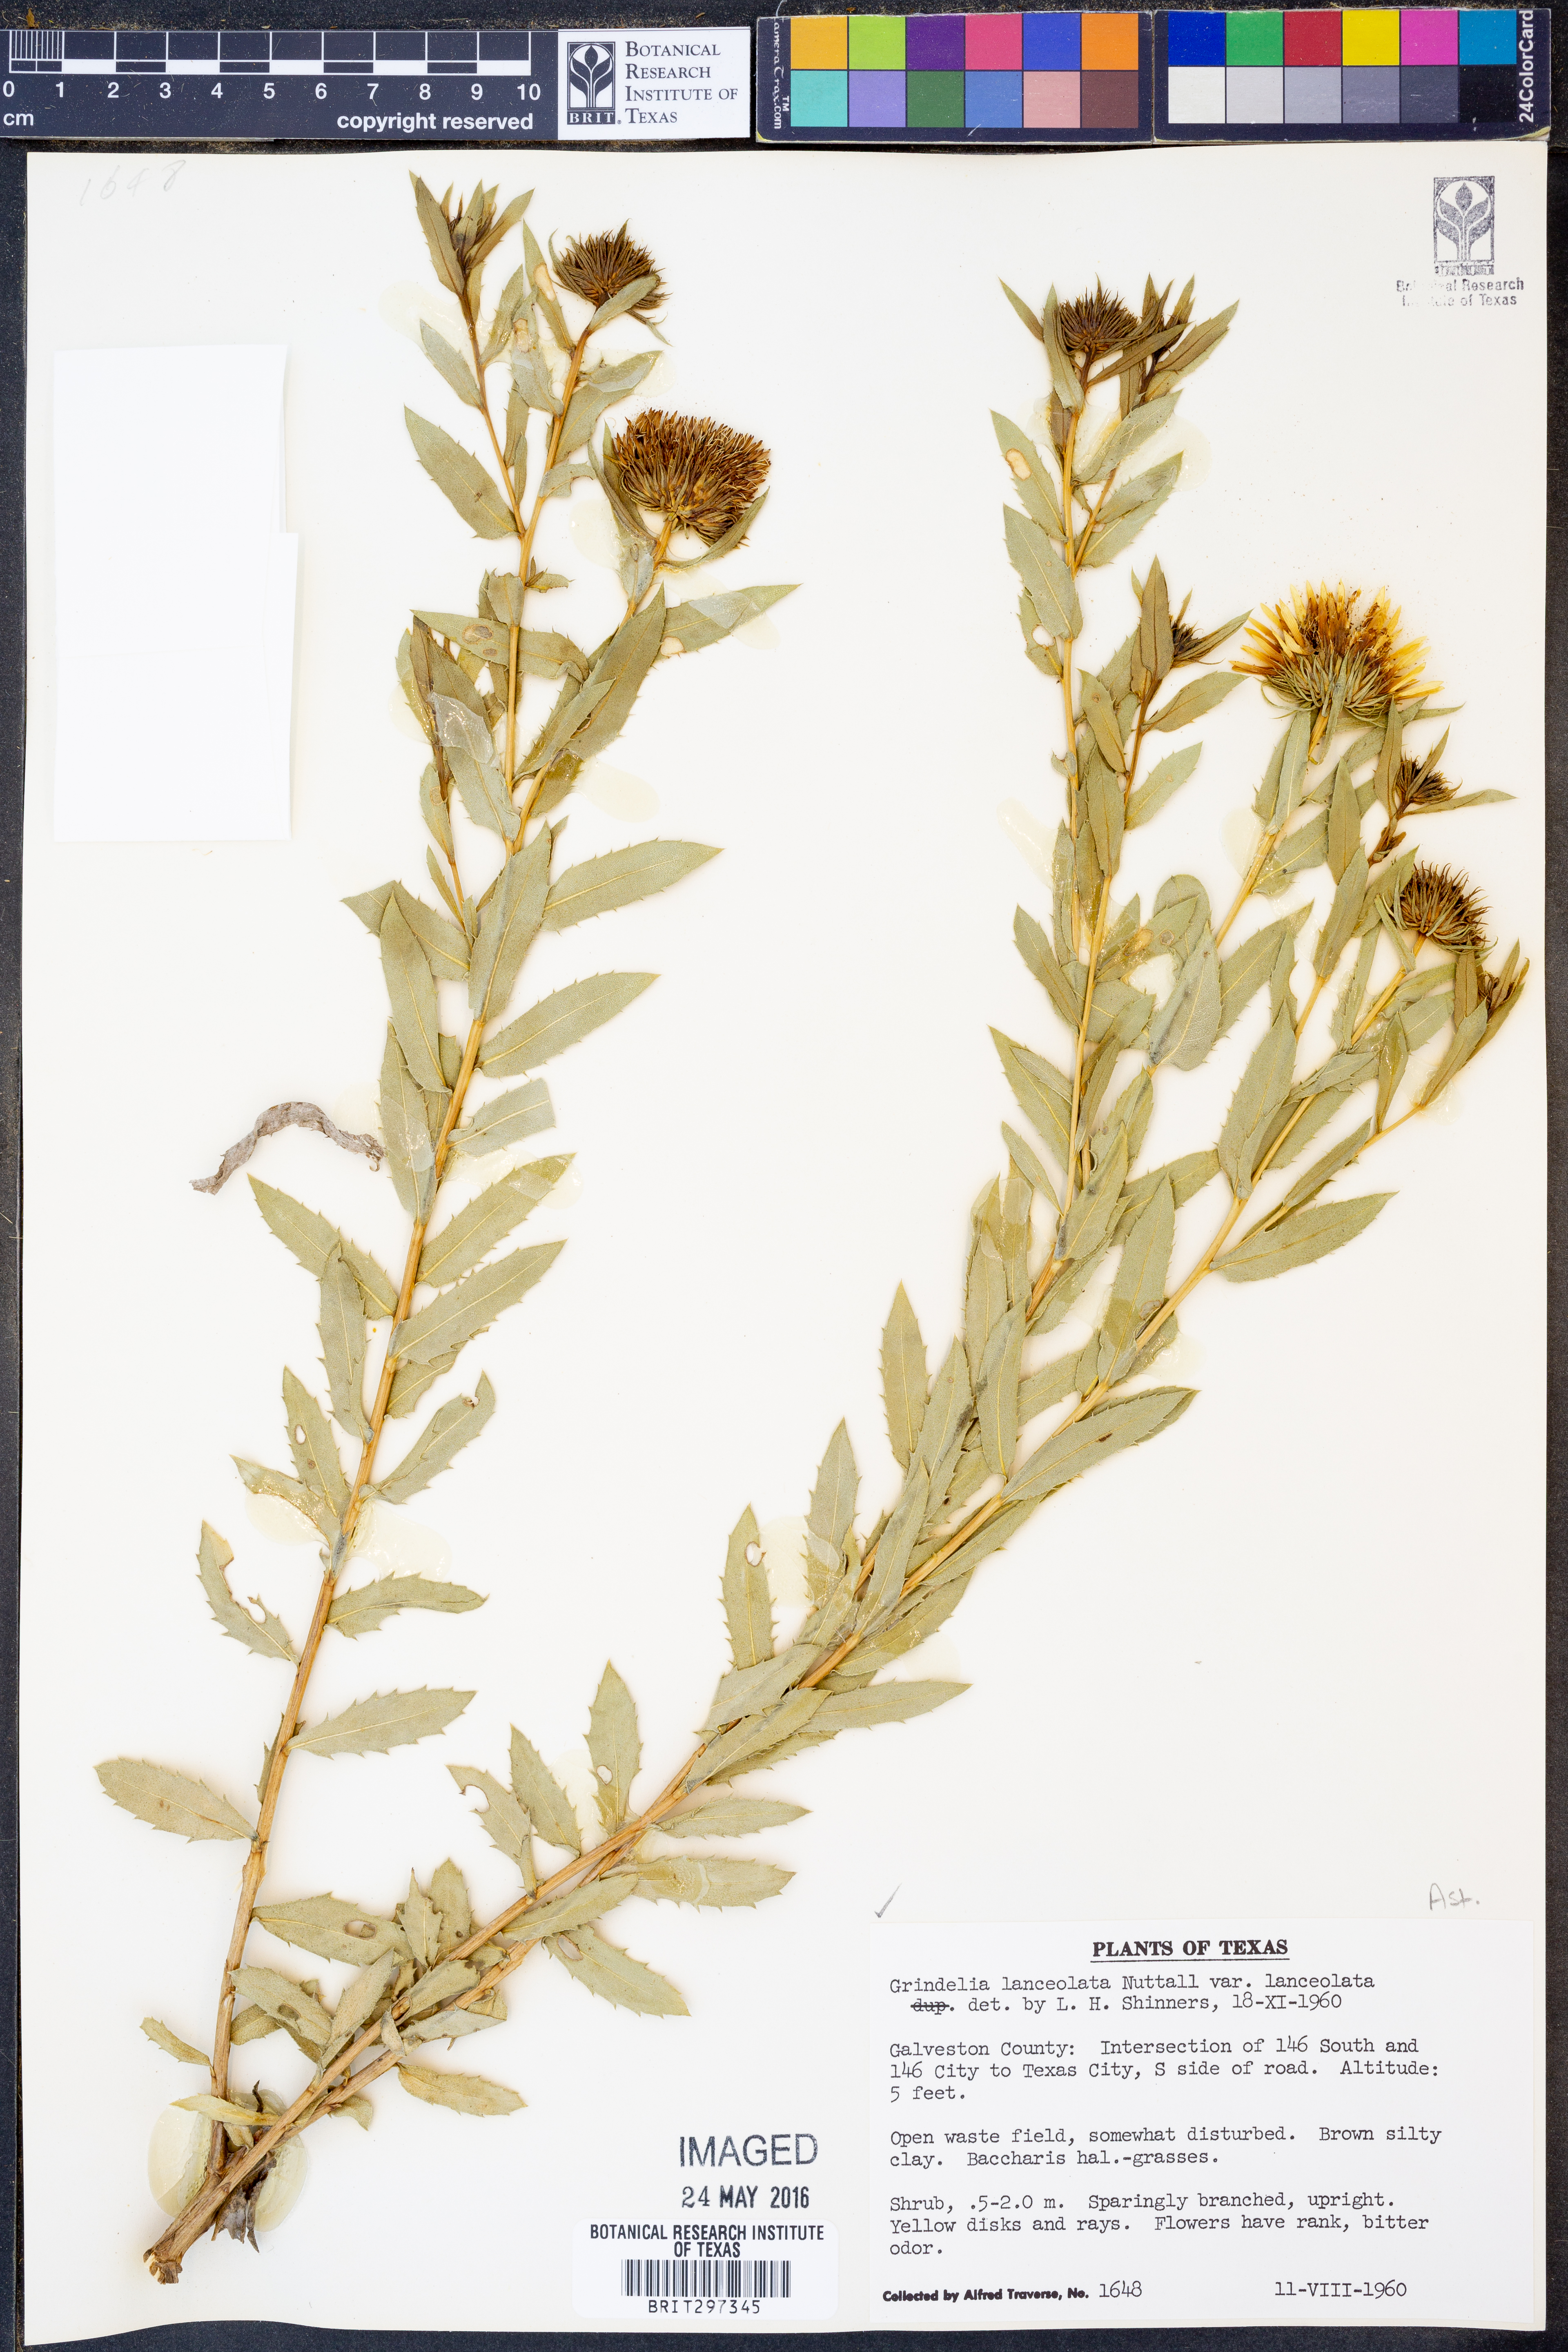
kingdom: Plantae
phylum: Tracheophyta
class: Magnoliopsida
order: Asterales
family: Asteraceae
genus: Grindelia
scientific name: Grindelia lanceolata
